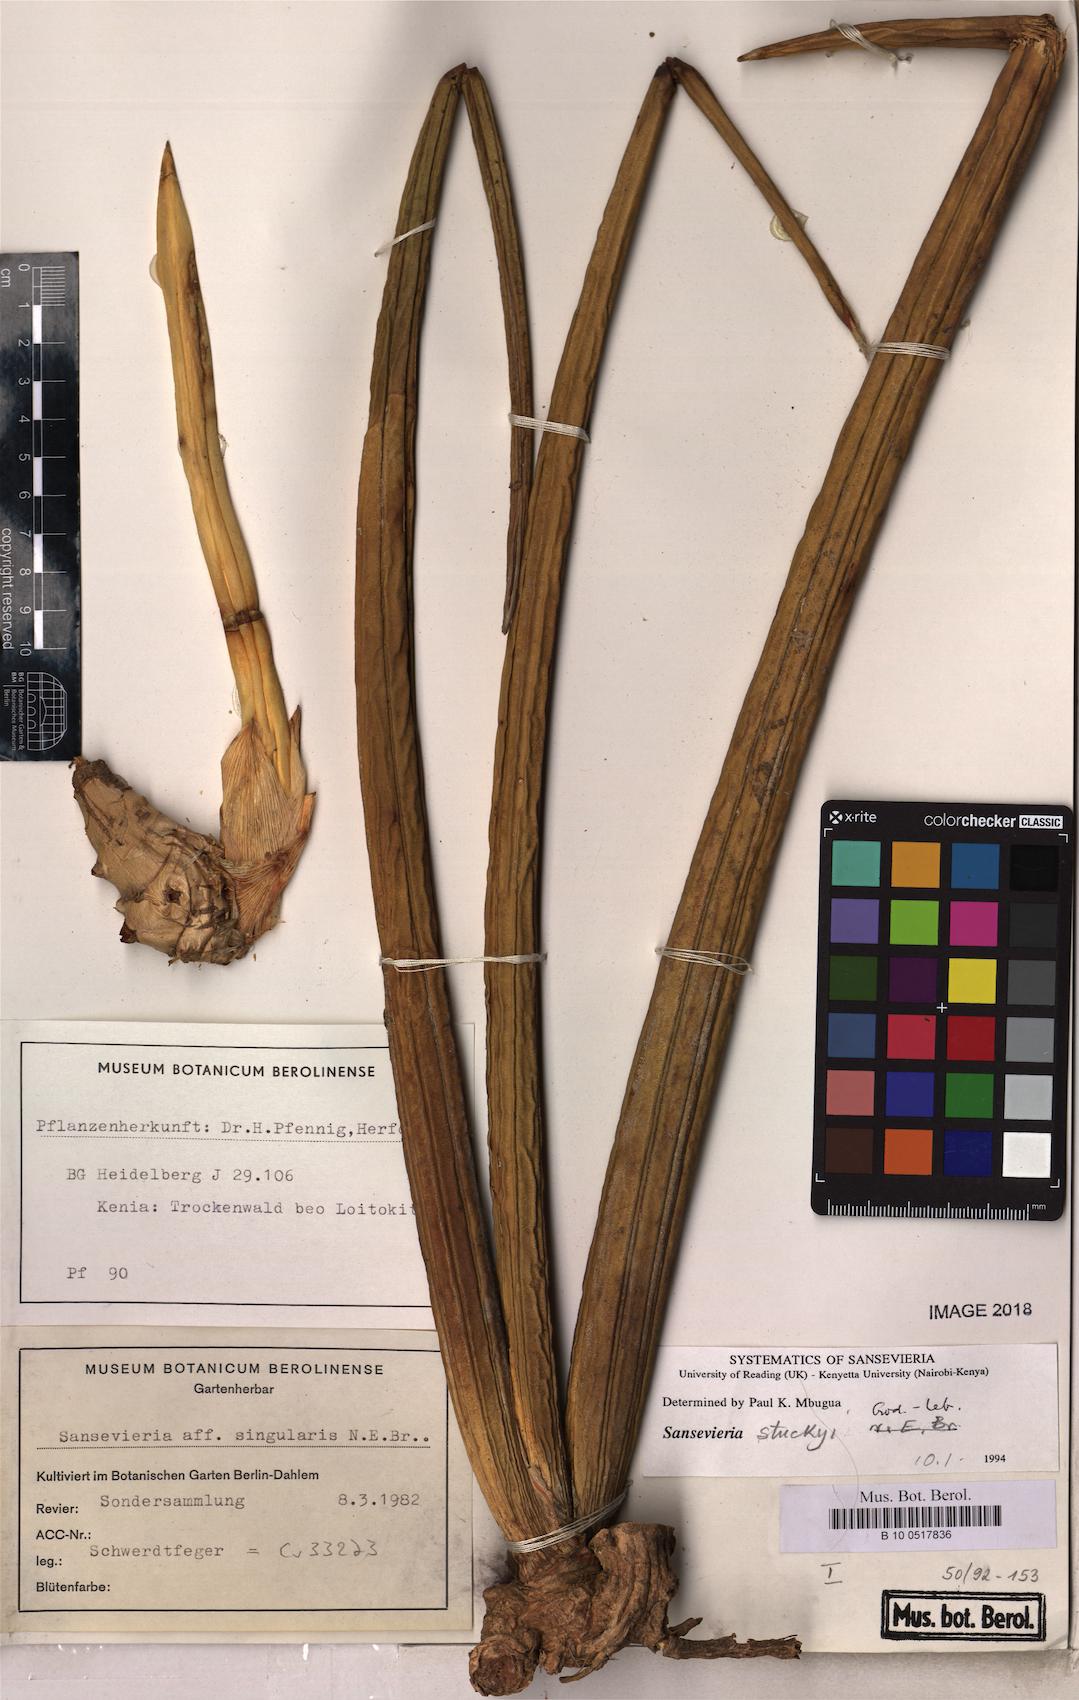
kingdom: Plantae
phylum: Tracheophyta
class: Liliopsida
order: Asparagales
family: Asparagaceae
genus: Dracaena
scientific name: Dracaena stuckyi
